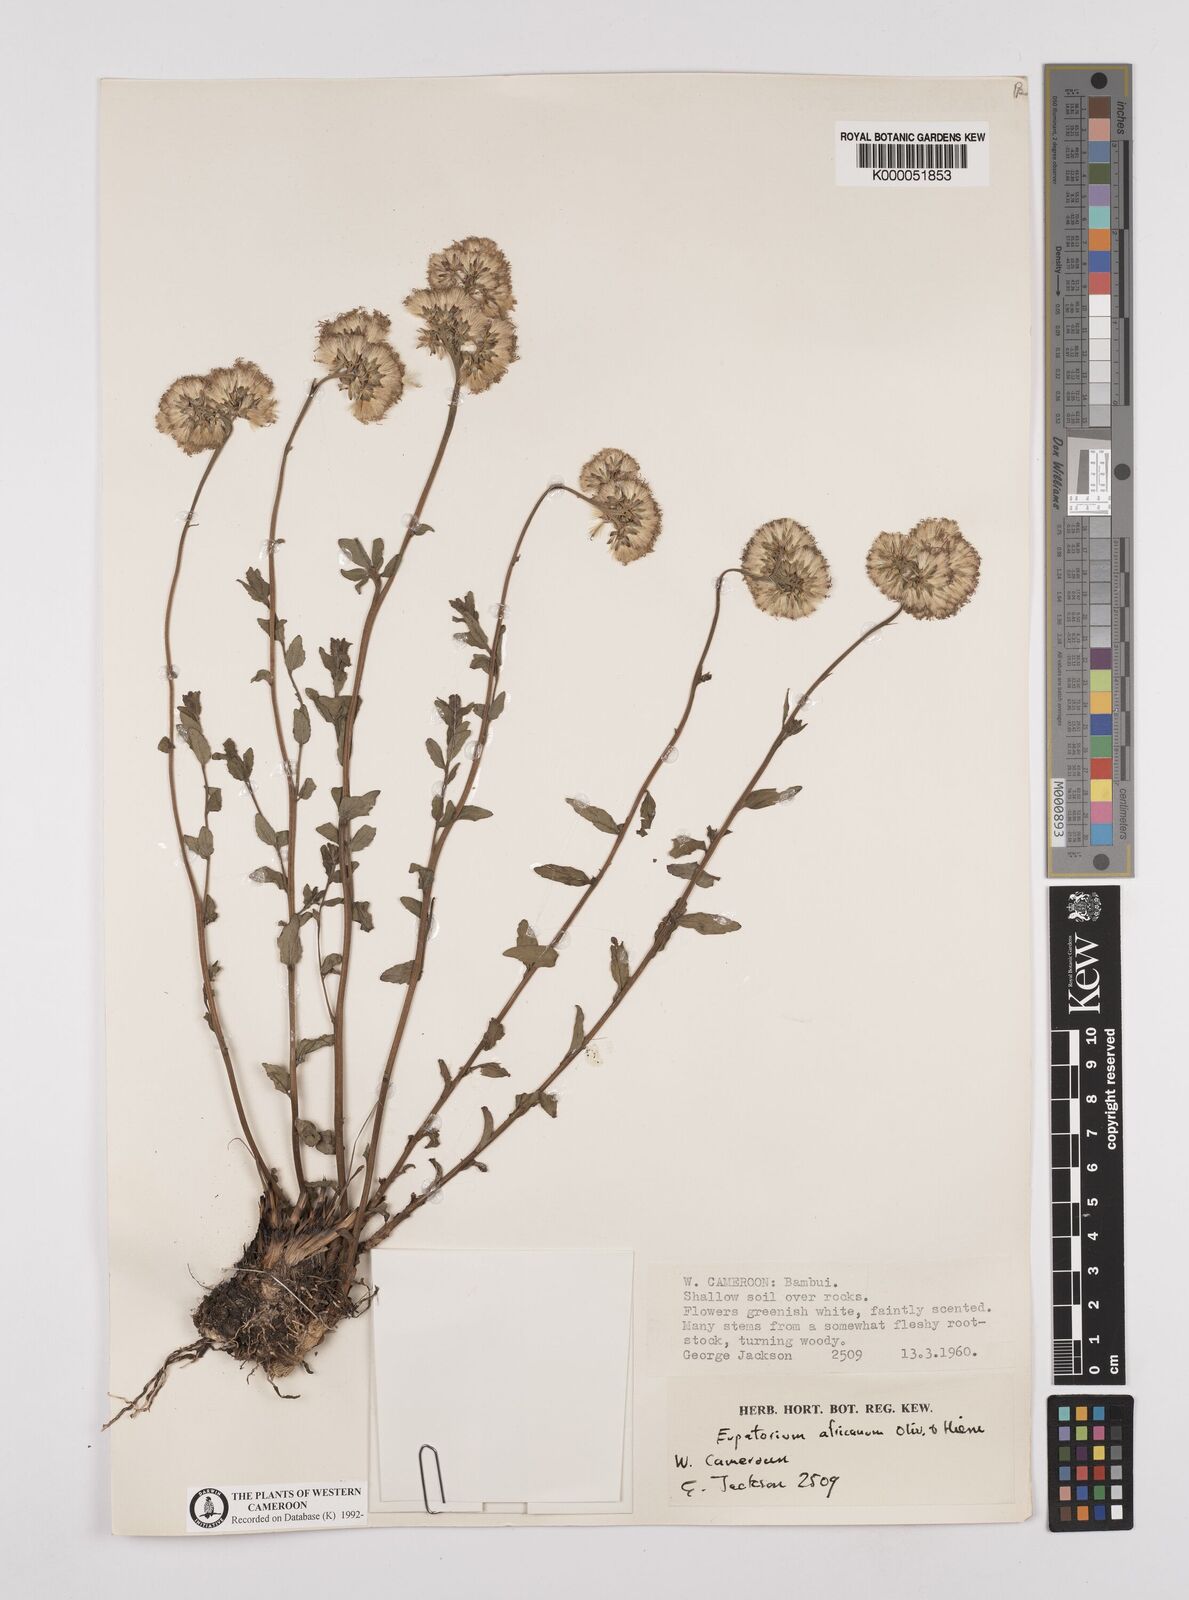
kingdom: Plantae
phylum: Tracheophyta
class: Magnoliopsida
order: Asterales
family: Asteraceae
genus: Stomatanthes
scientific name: Stomatanthes africanus
